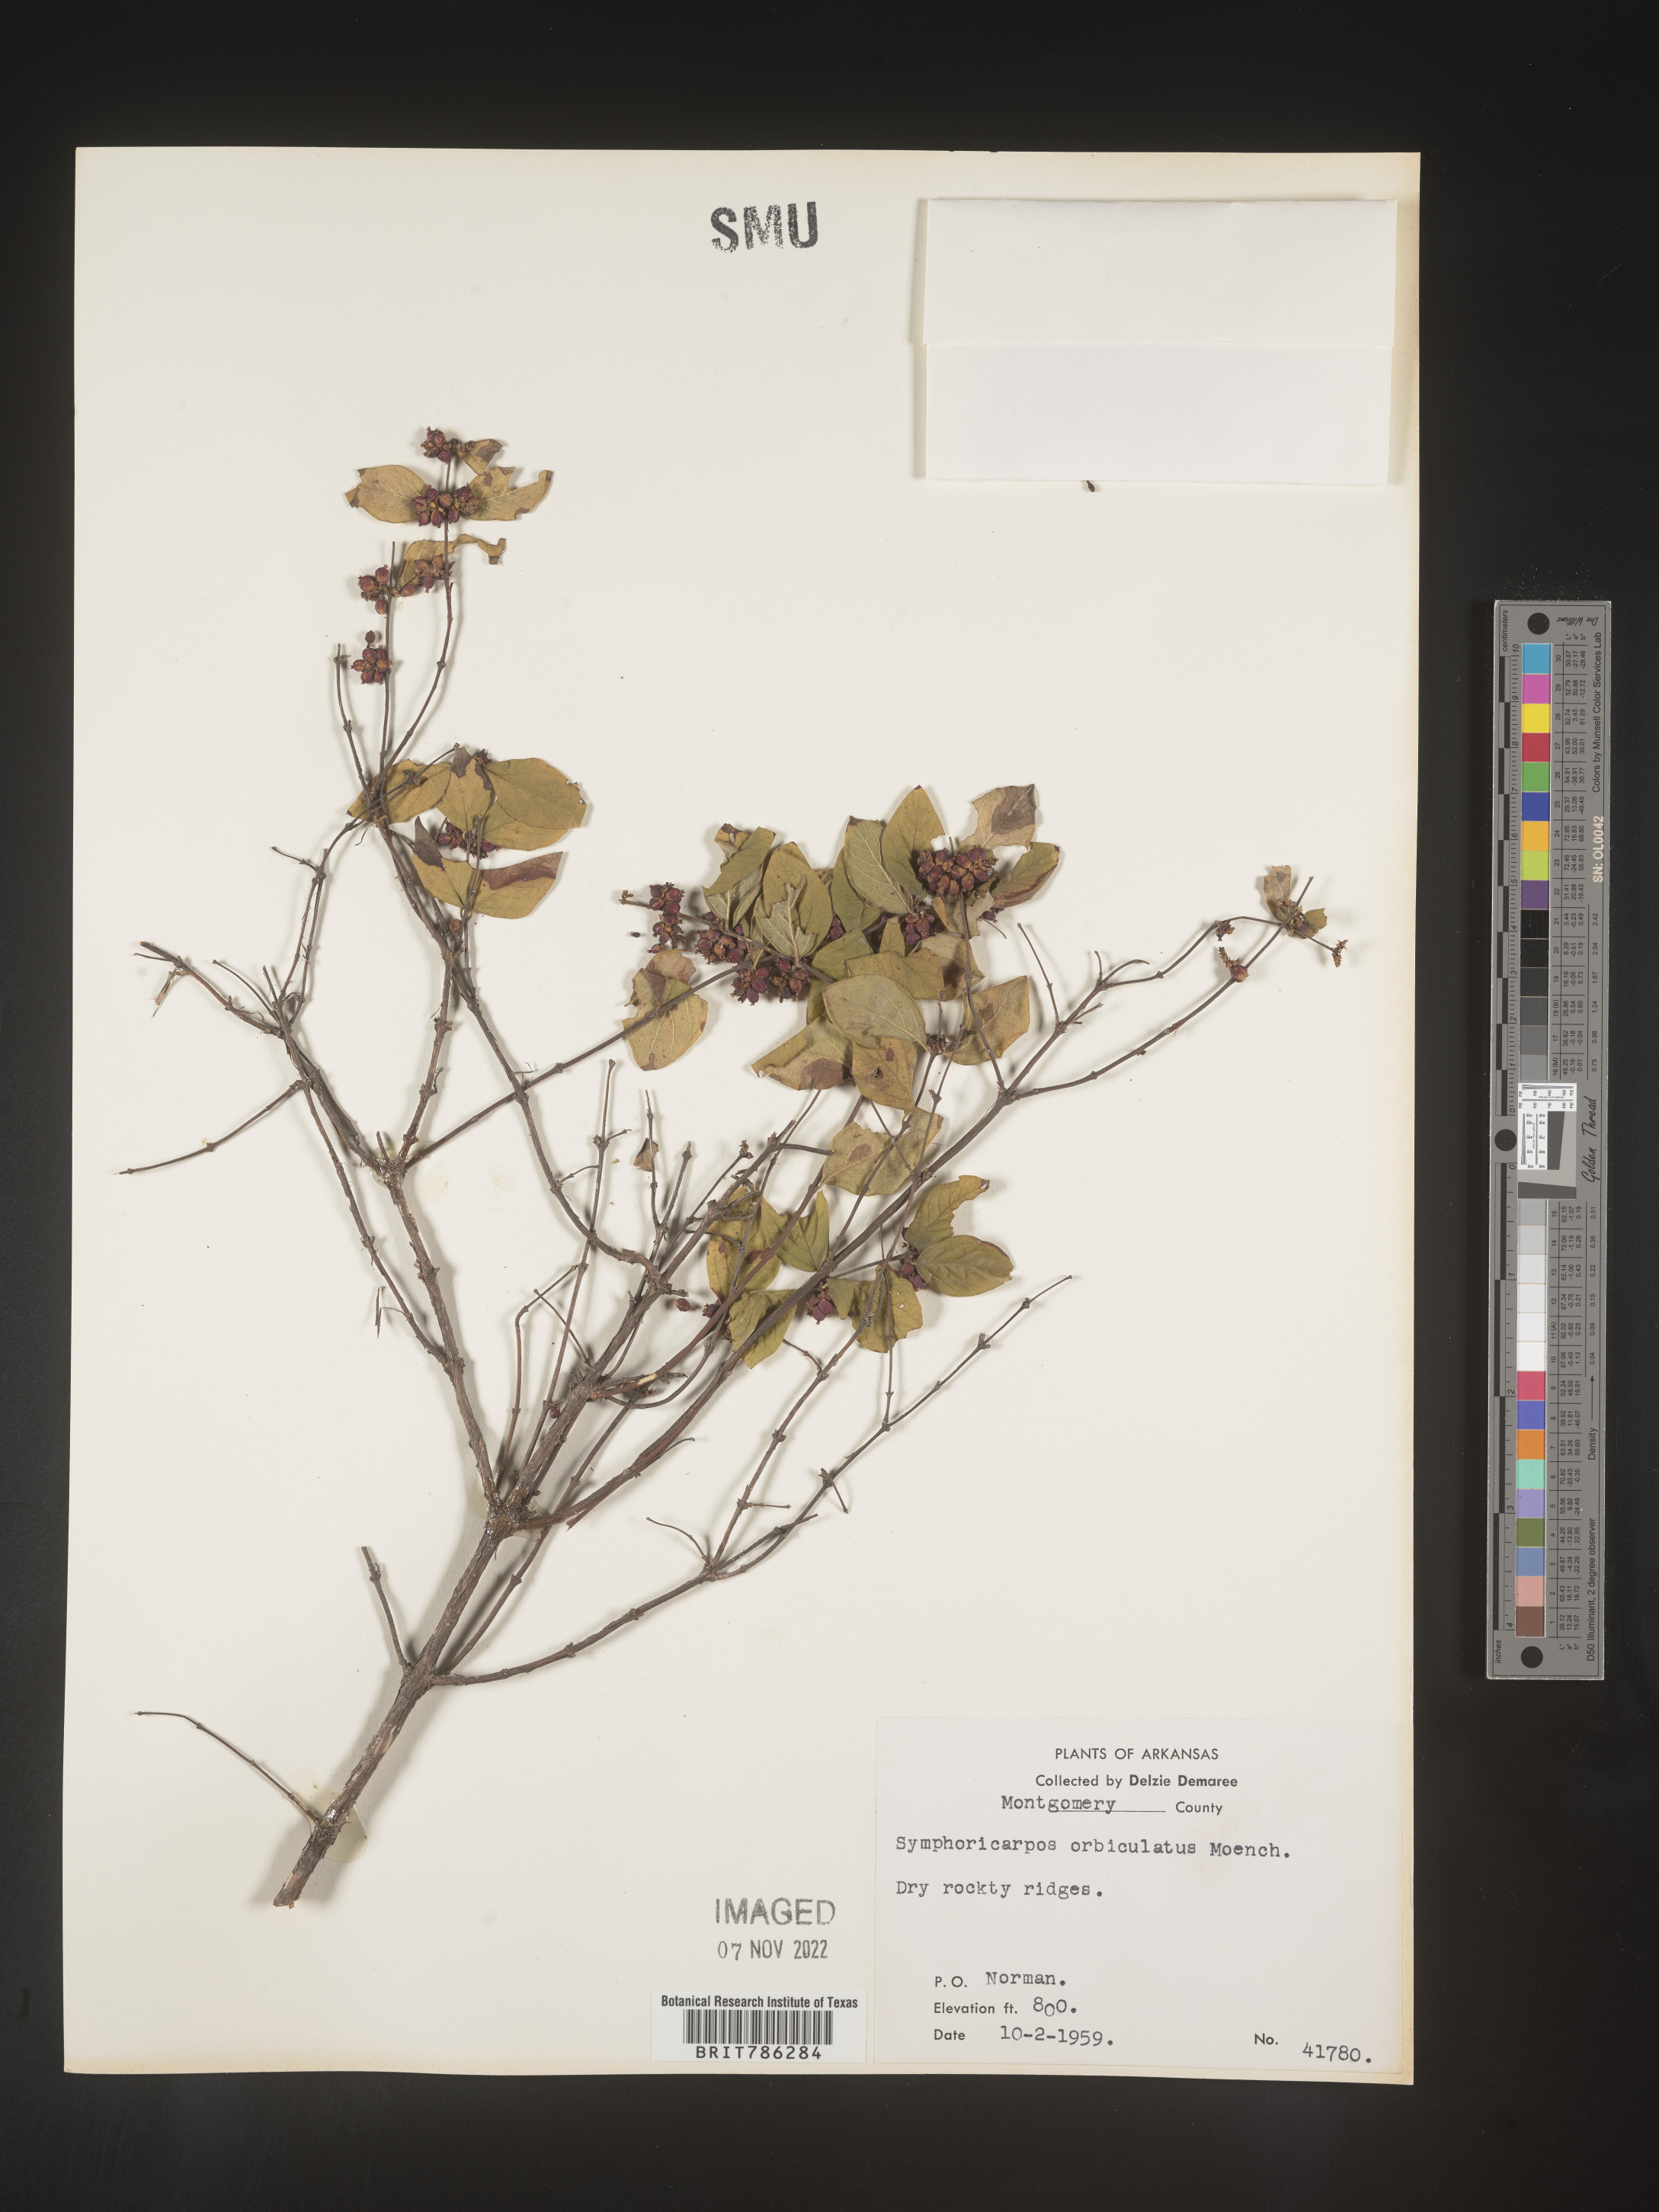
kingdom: Plantae
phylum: Tracheophyta
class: Magnoliopsida
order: Dipsacales
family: Caprifoliaceae
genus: Symphoricarpos
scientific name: Symphoricarpos orbiculatus
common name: Coralberry
